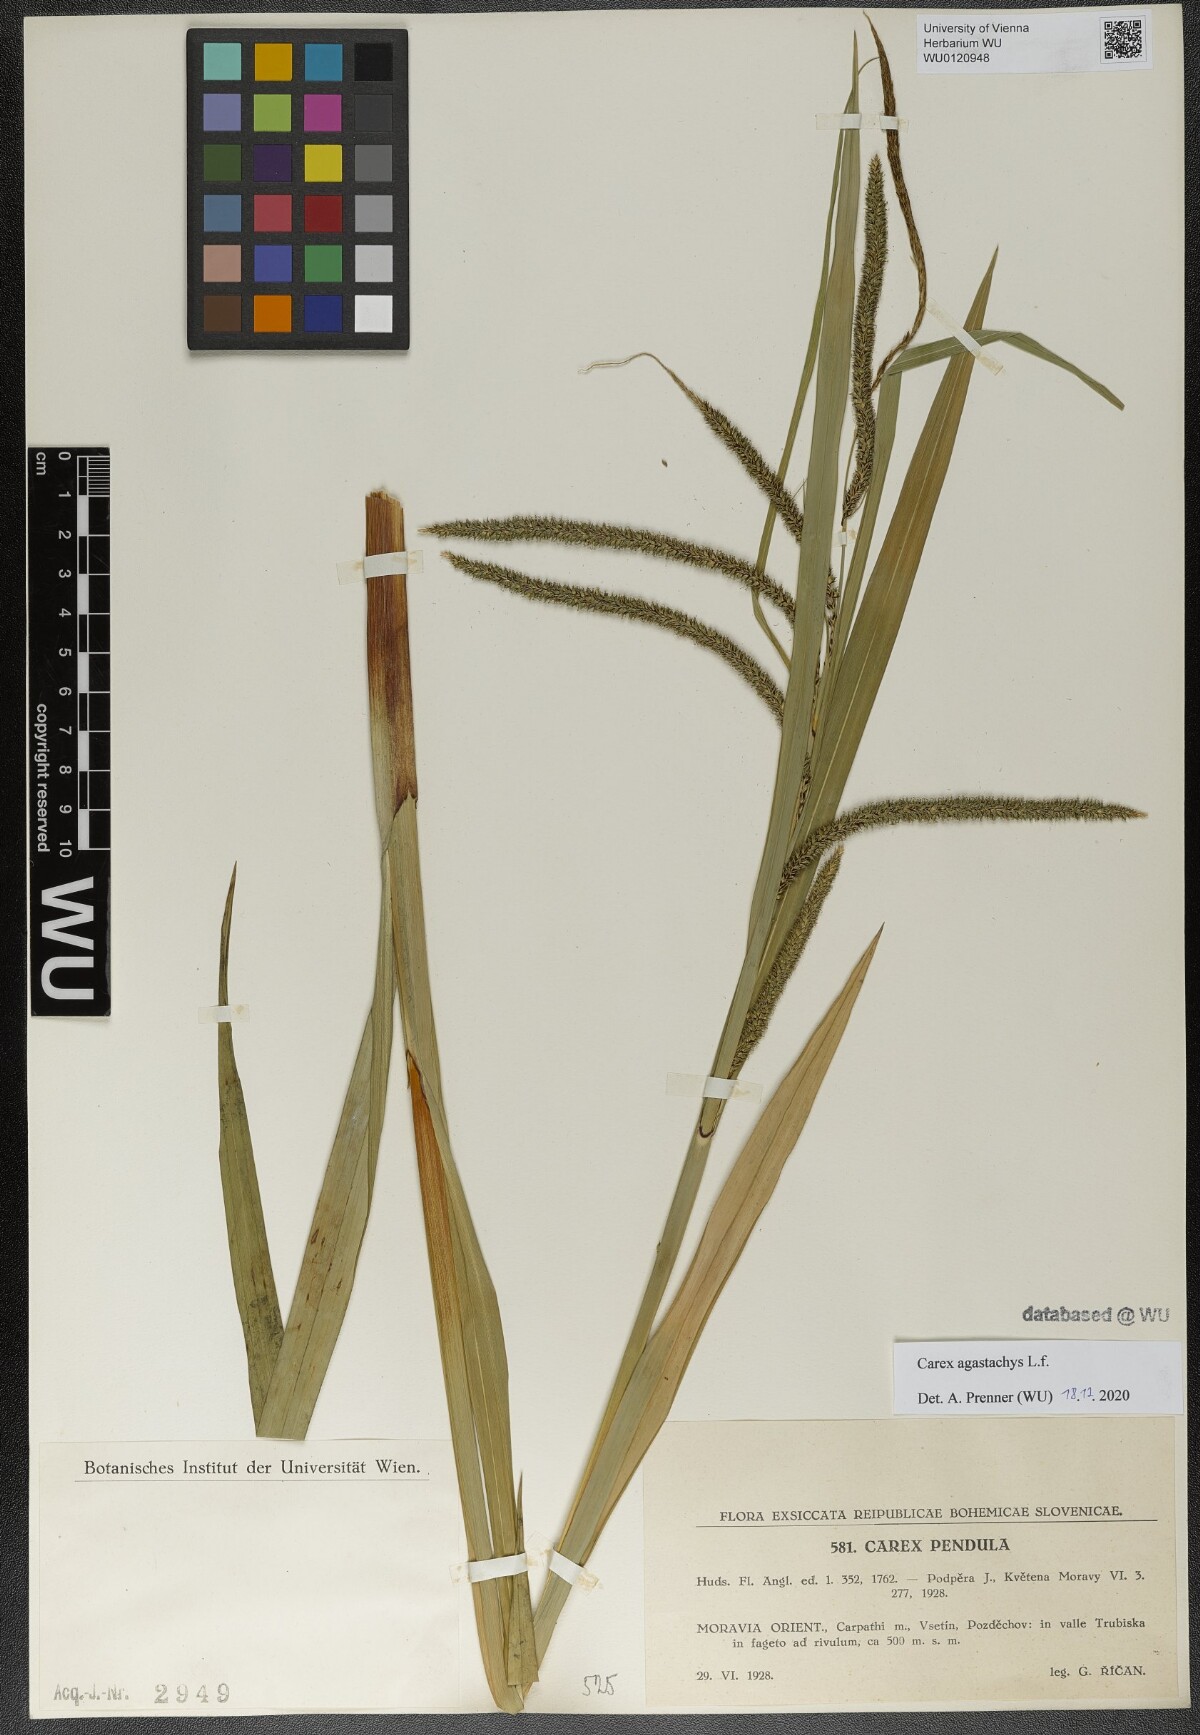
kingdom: Plantae
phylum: Tracheophyta
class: Liliopsida
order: Poales
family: Cyperaceae
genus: Carex
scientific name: Carex agastachys
